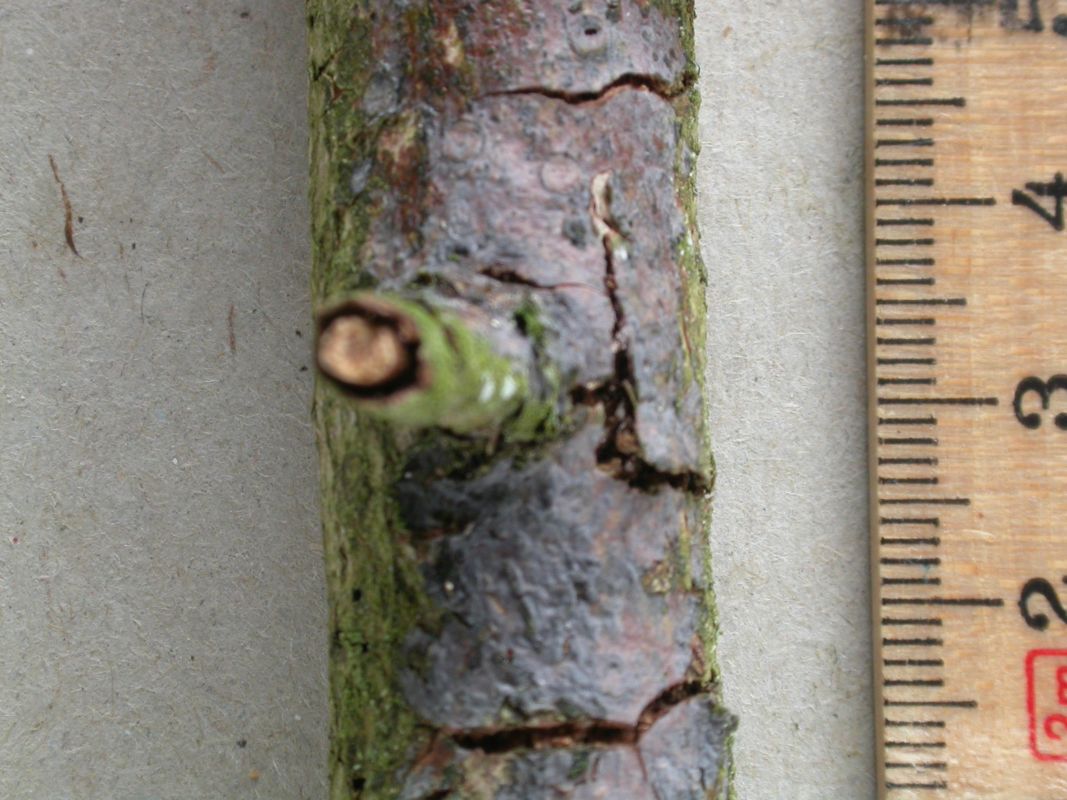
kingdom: Fungi
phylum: Basidiomycota
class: Agaricomycetes
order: Sebacinales
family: Sebacinaceae
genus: Sebacina
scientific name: Sebacina grisea
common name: blågrå bævrehinde
